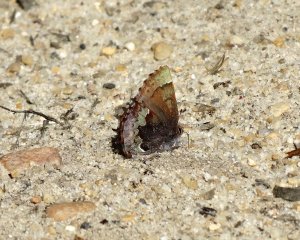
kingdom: Animalia
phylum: Arthropoda
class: Insecta
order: Lepidoptera
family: Lycaenidae
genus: Incisalia
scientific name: Incisalia henrici
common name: Henry's Elfin
